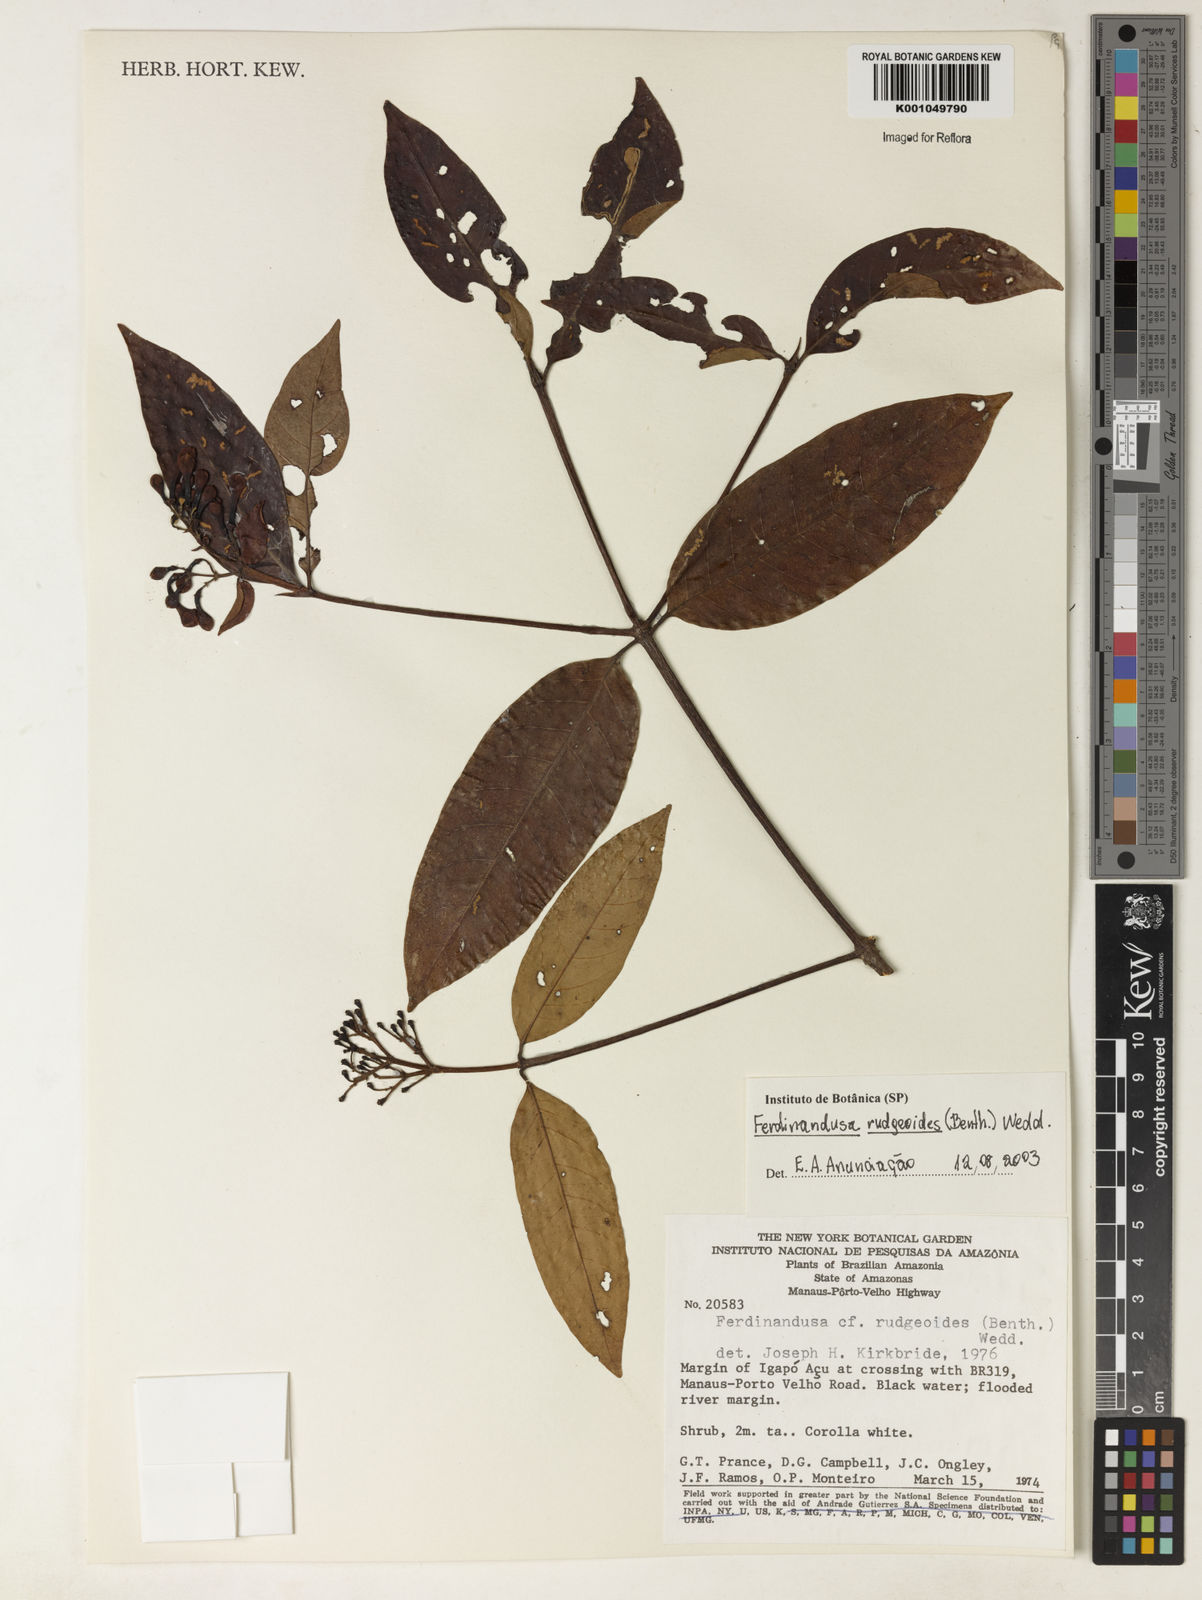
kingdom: Plantae
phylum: Tracheophyta
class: Magnoliopsida
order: Gentianales
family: Rubiaceae
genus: Ferdinandusa
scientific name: Ferdinandusa rudgeoides
